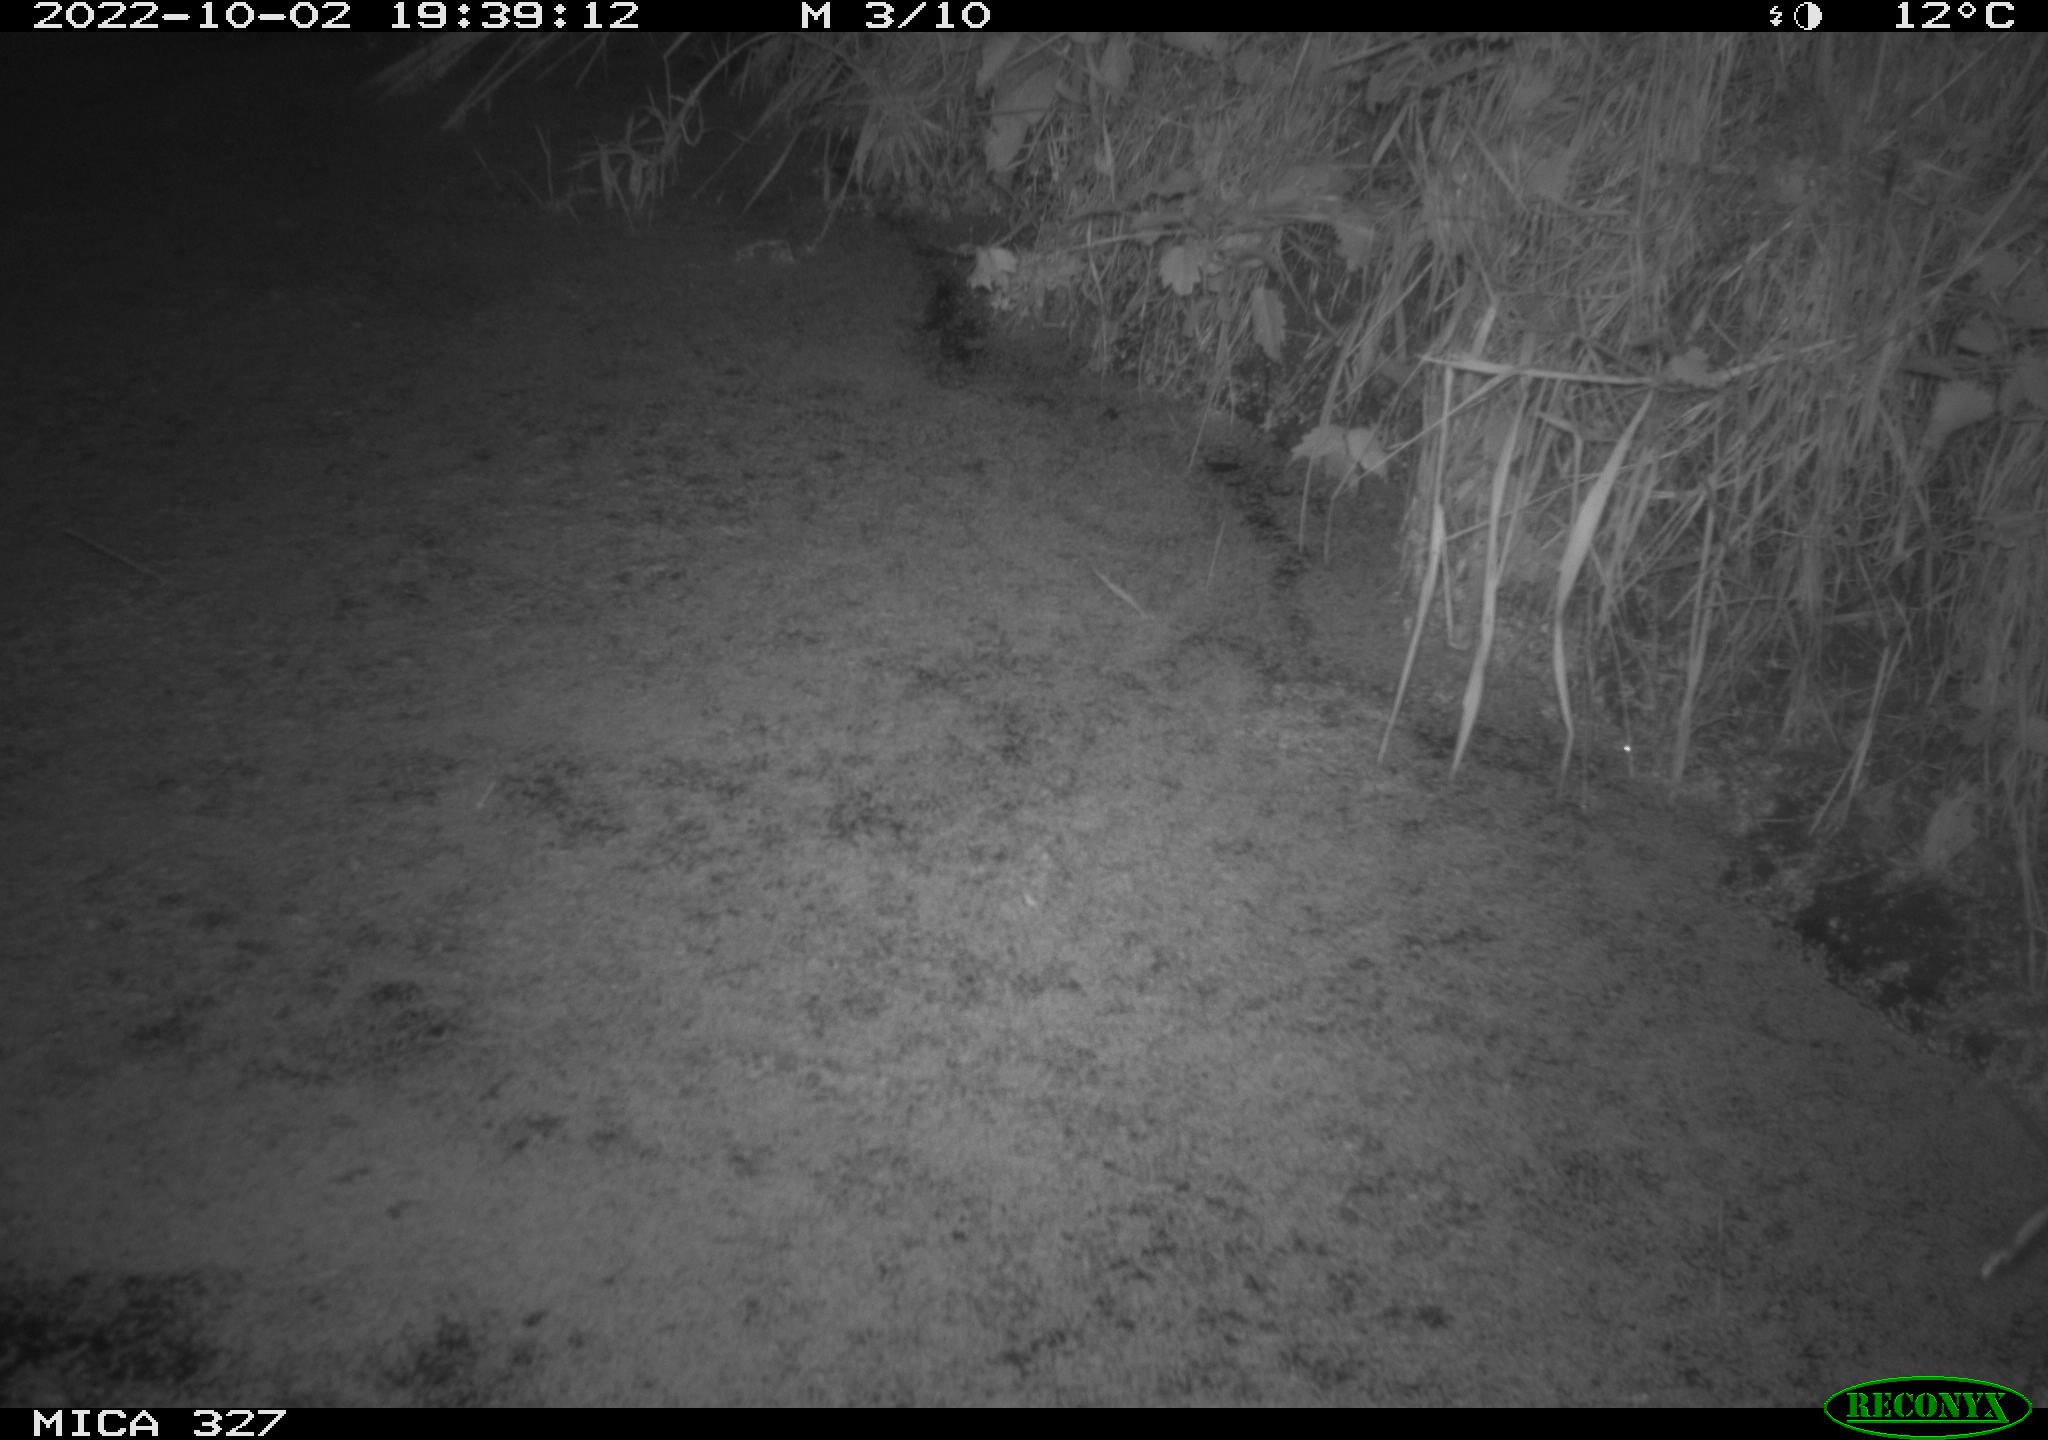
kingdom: Animalia
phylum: Chordata
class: Mammalia
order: Rodentia
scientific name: Rodentia
